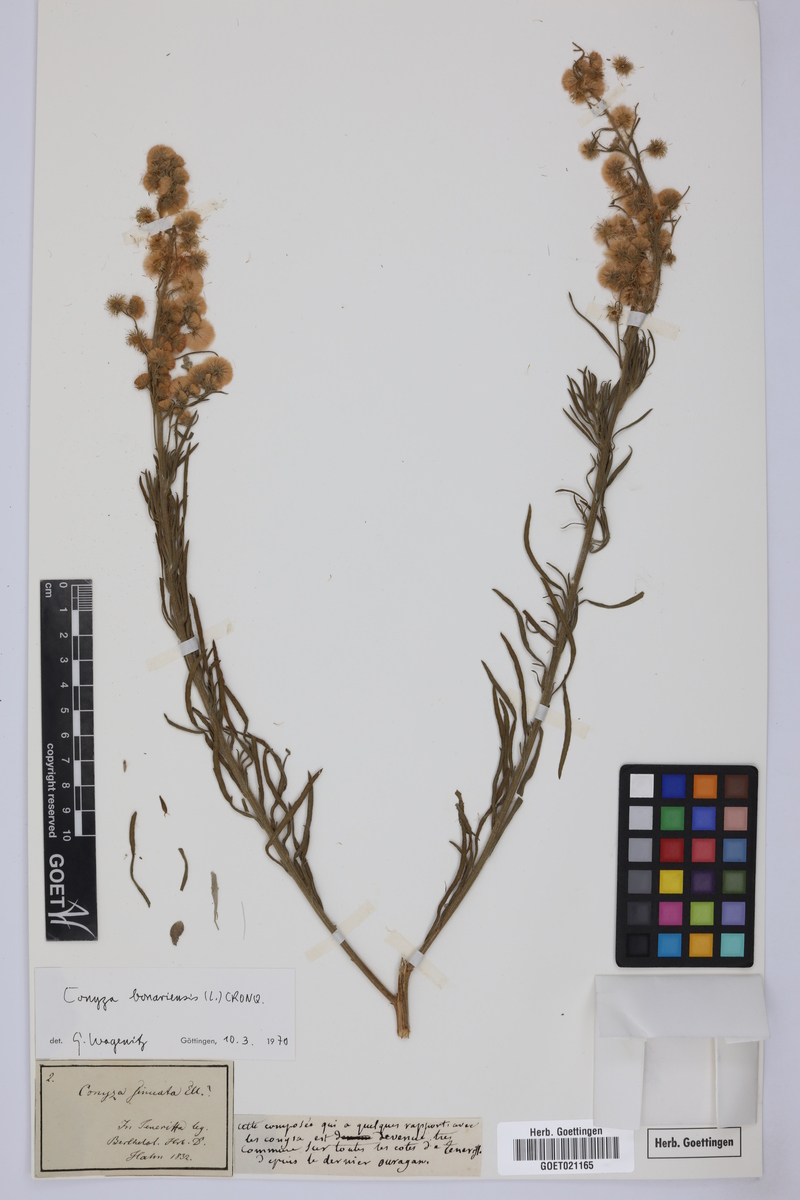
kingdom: Plantae
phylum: Tracheophyta
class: Magnoliopsida
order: Asterales
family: Asteraceae
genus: Erigeron
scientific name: Erigeron bonariensis
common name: Argentine fleabane
